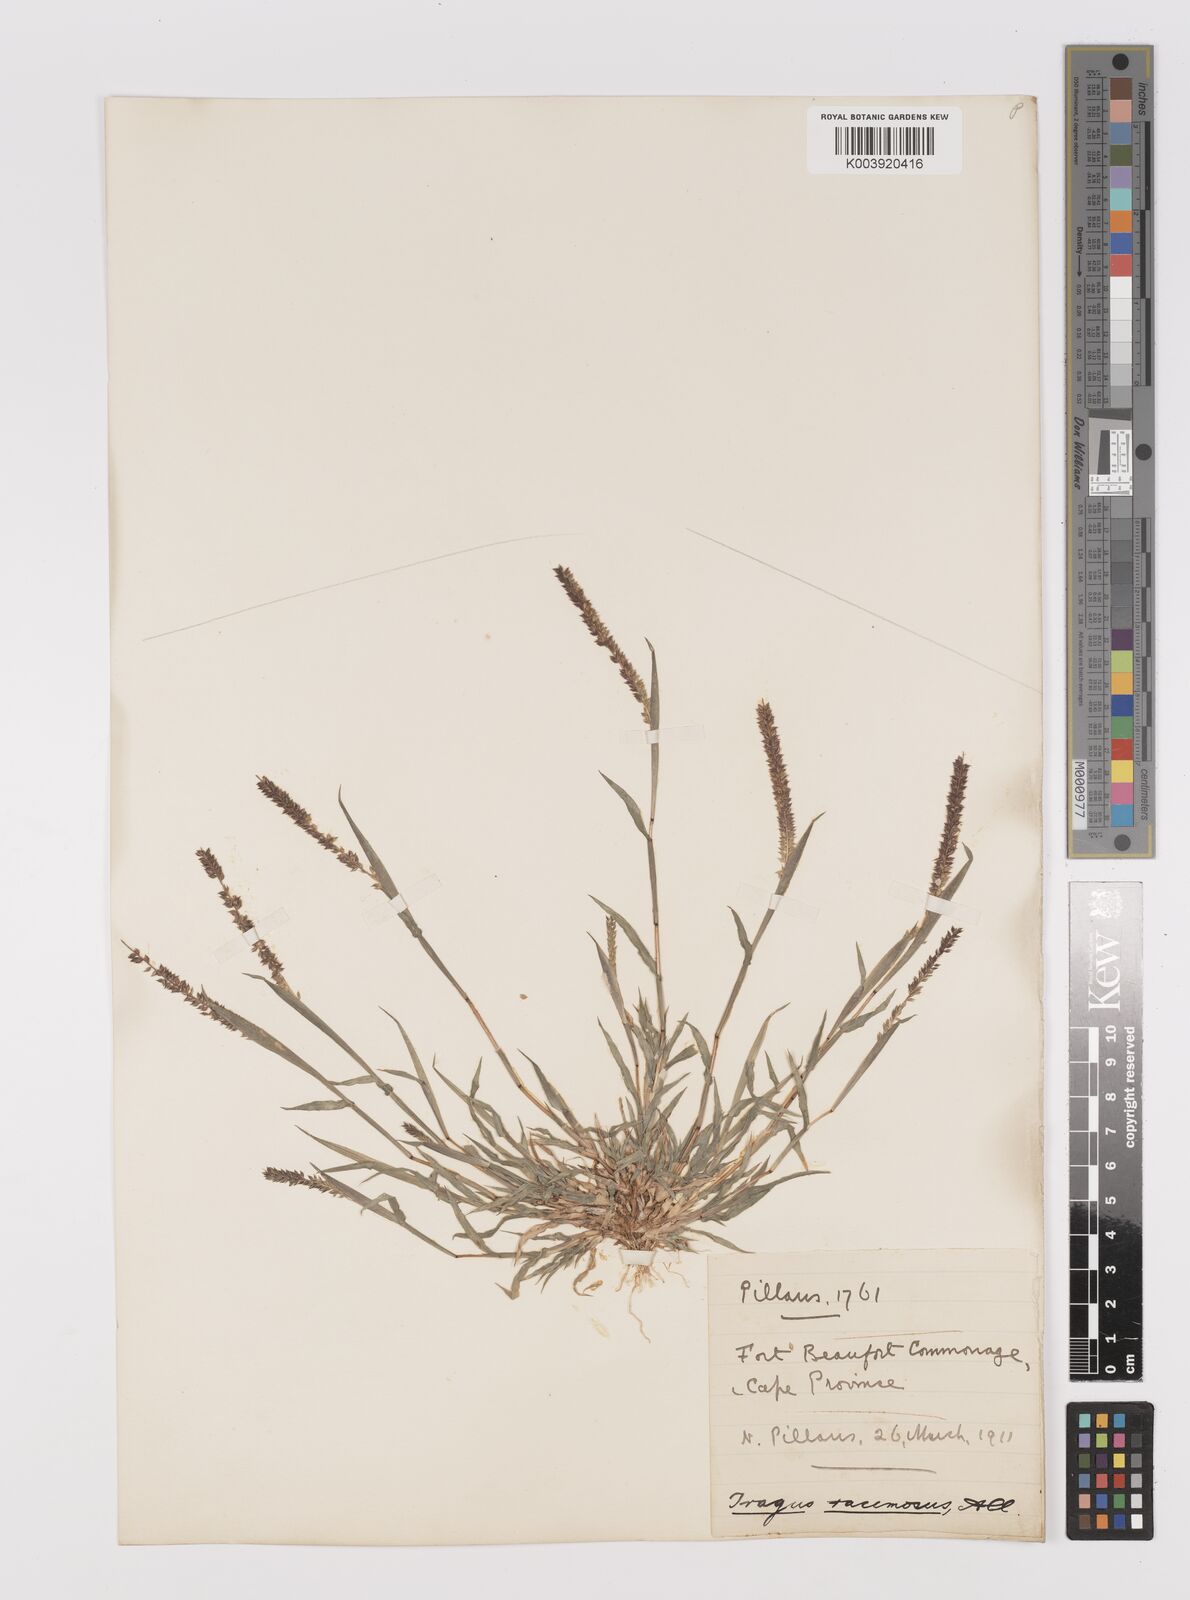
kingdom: Plantae
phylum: Tracheophyta
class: Liliopsida
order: Poales
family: Poaceae
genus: Tragus
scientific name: Tragus berteronianus
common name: African bur-grass
